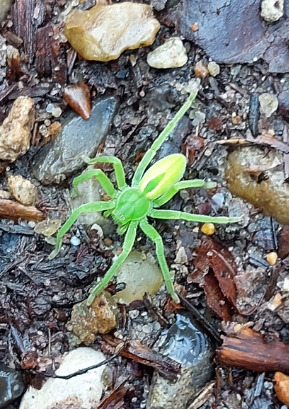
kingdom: Animalia
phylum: Arthropoda
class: Arachnida
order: Araneae
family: Sparassidae
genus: Micrommata
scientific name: Micrommata virescens
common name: Smaragdedderkop
